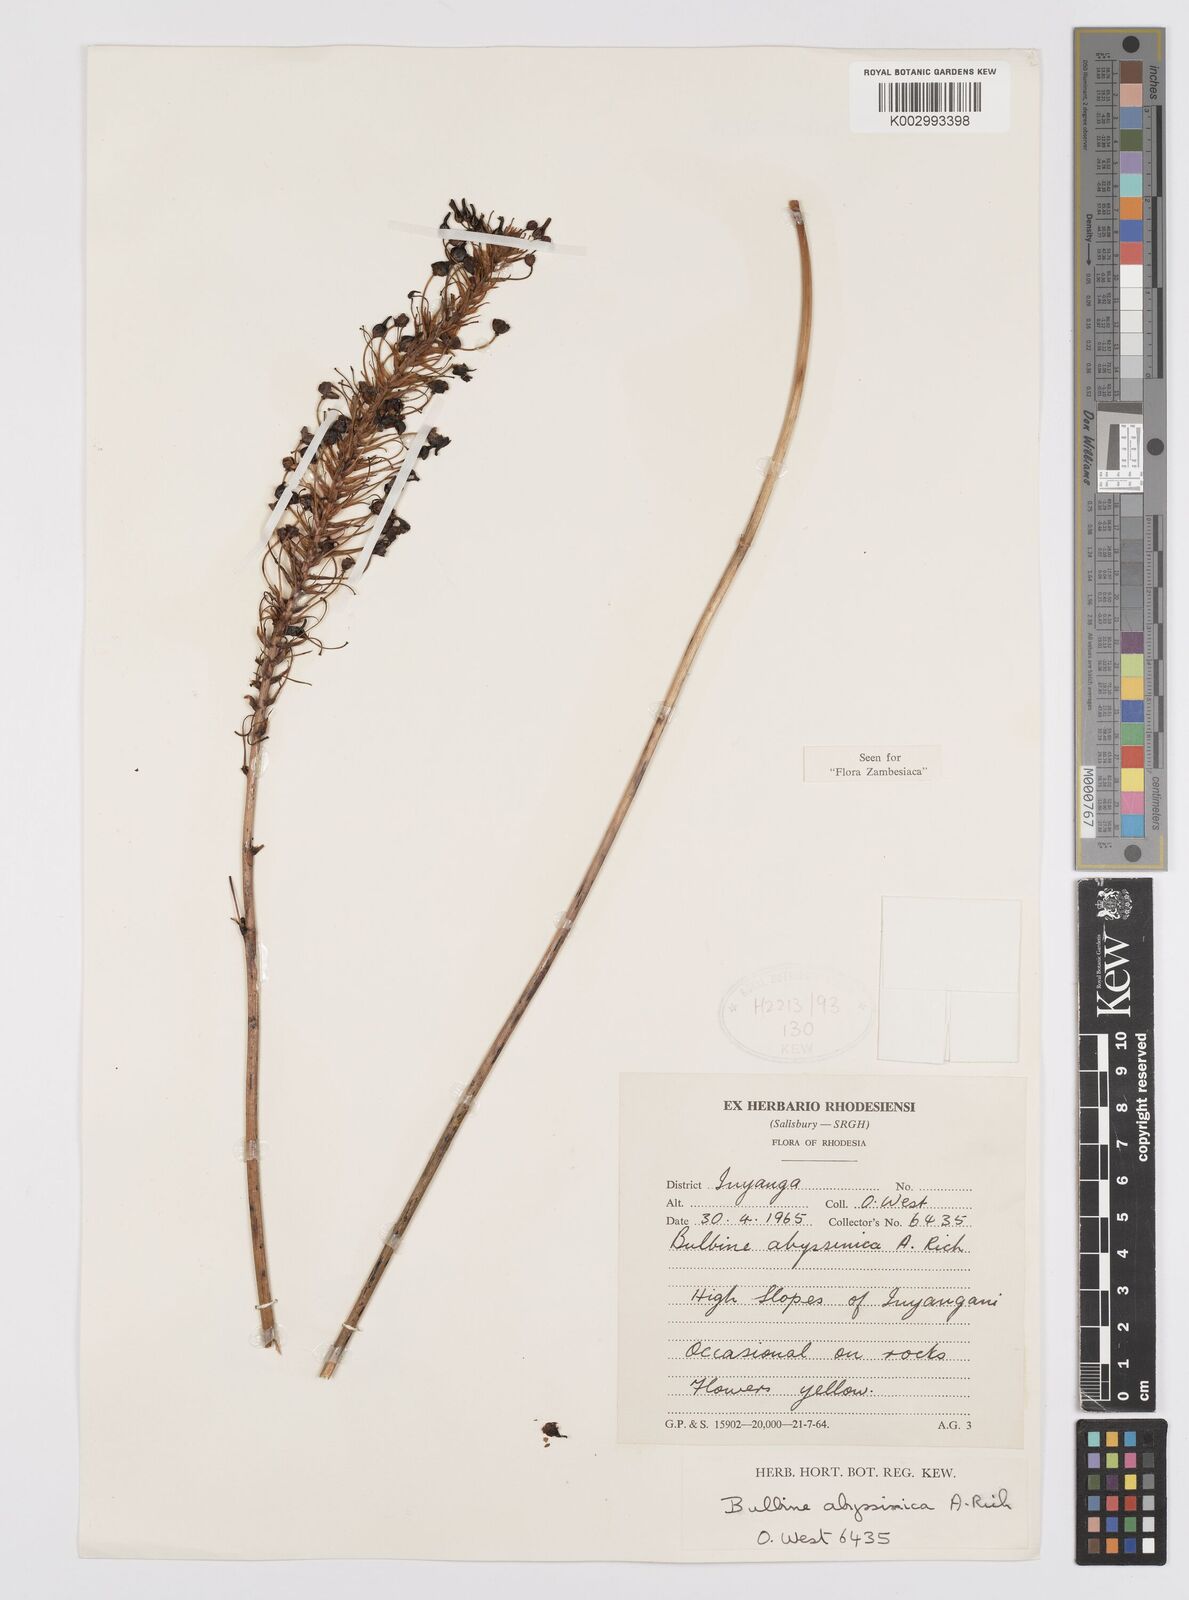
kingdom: Plantae
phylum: Tracheophyta
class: Liliopsida
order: Asparagales
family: Asphodelaceae
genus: Bulbine
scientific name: Bulbine abyssinica
